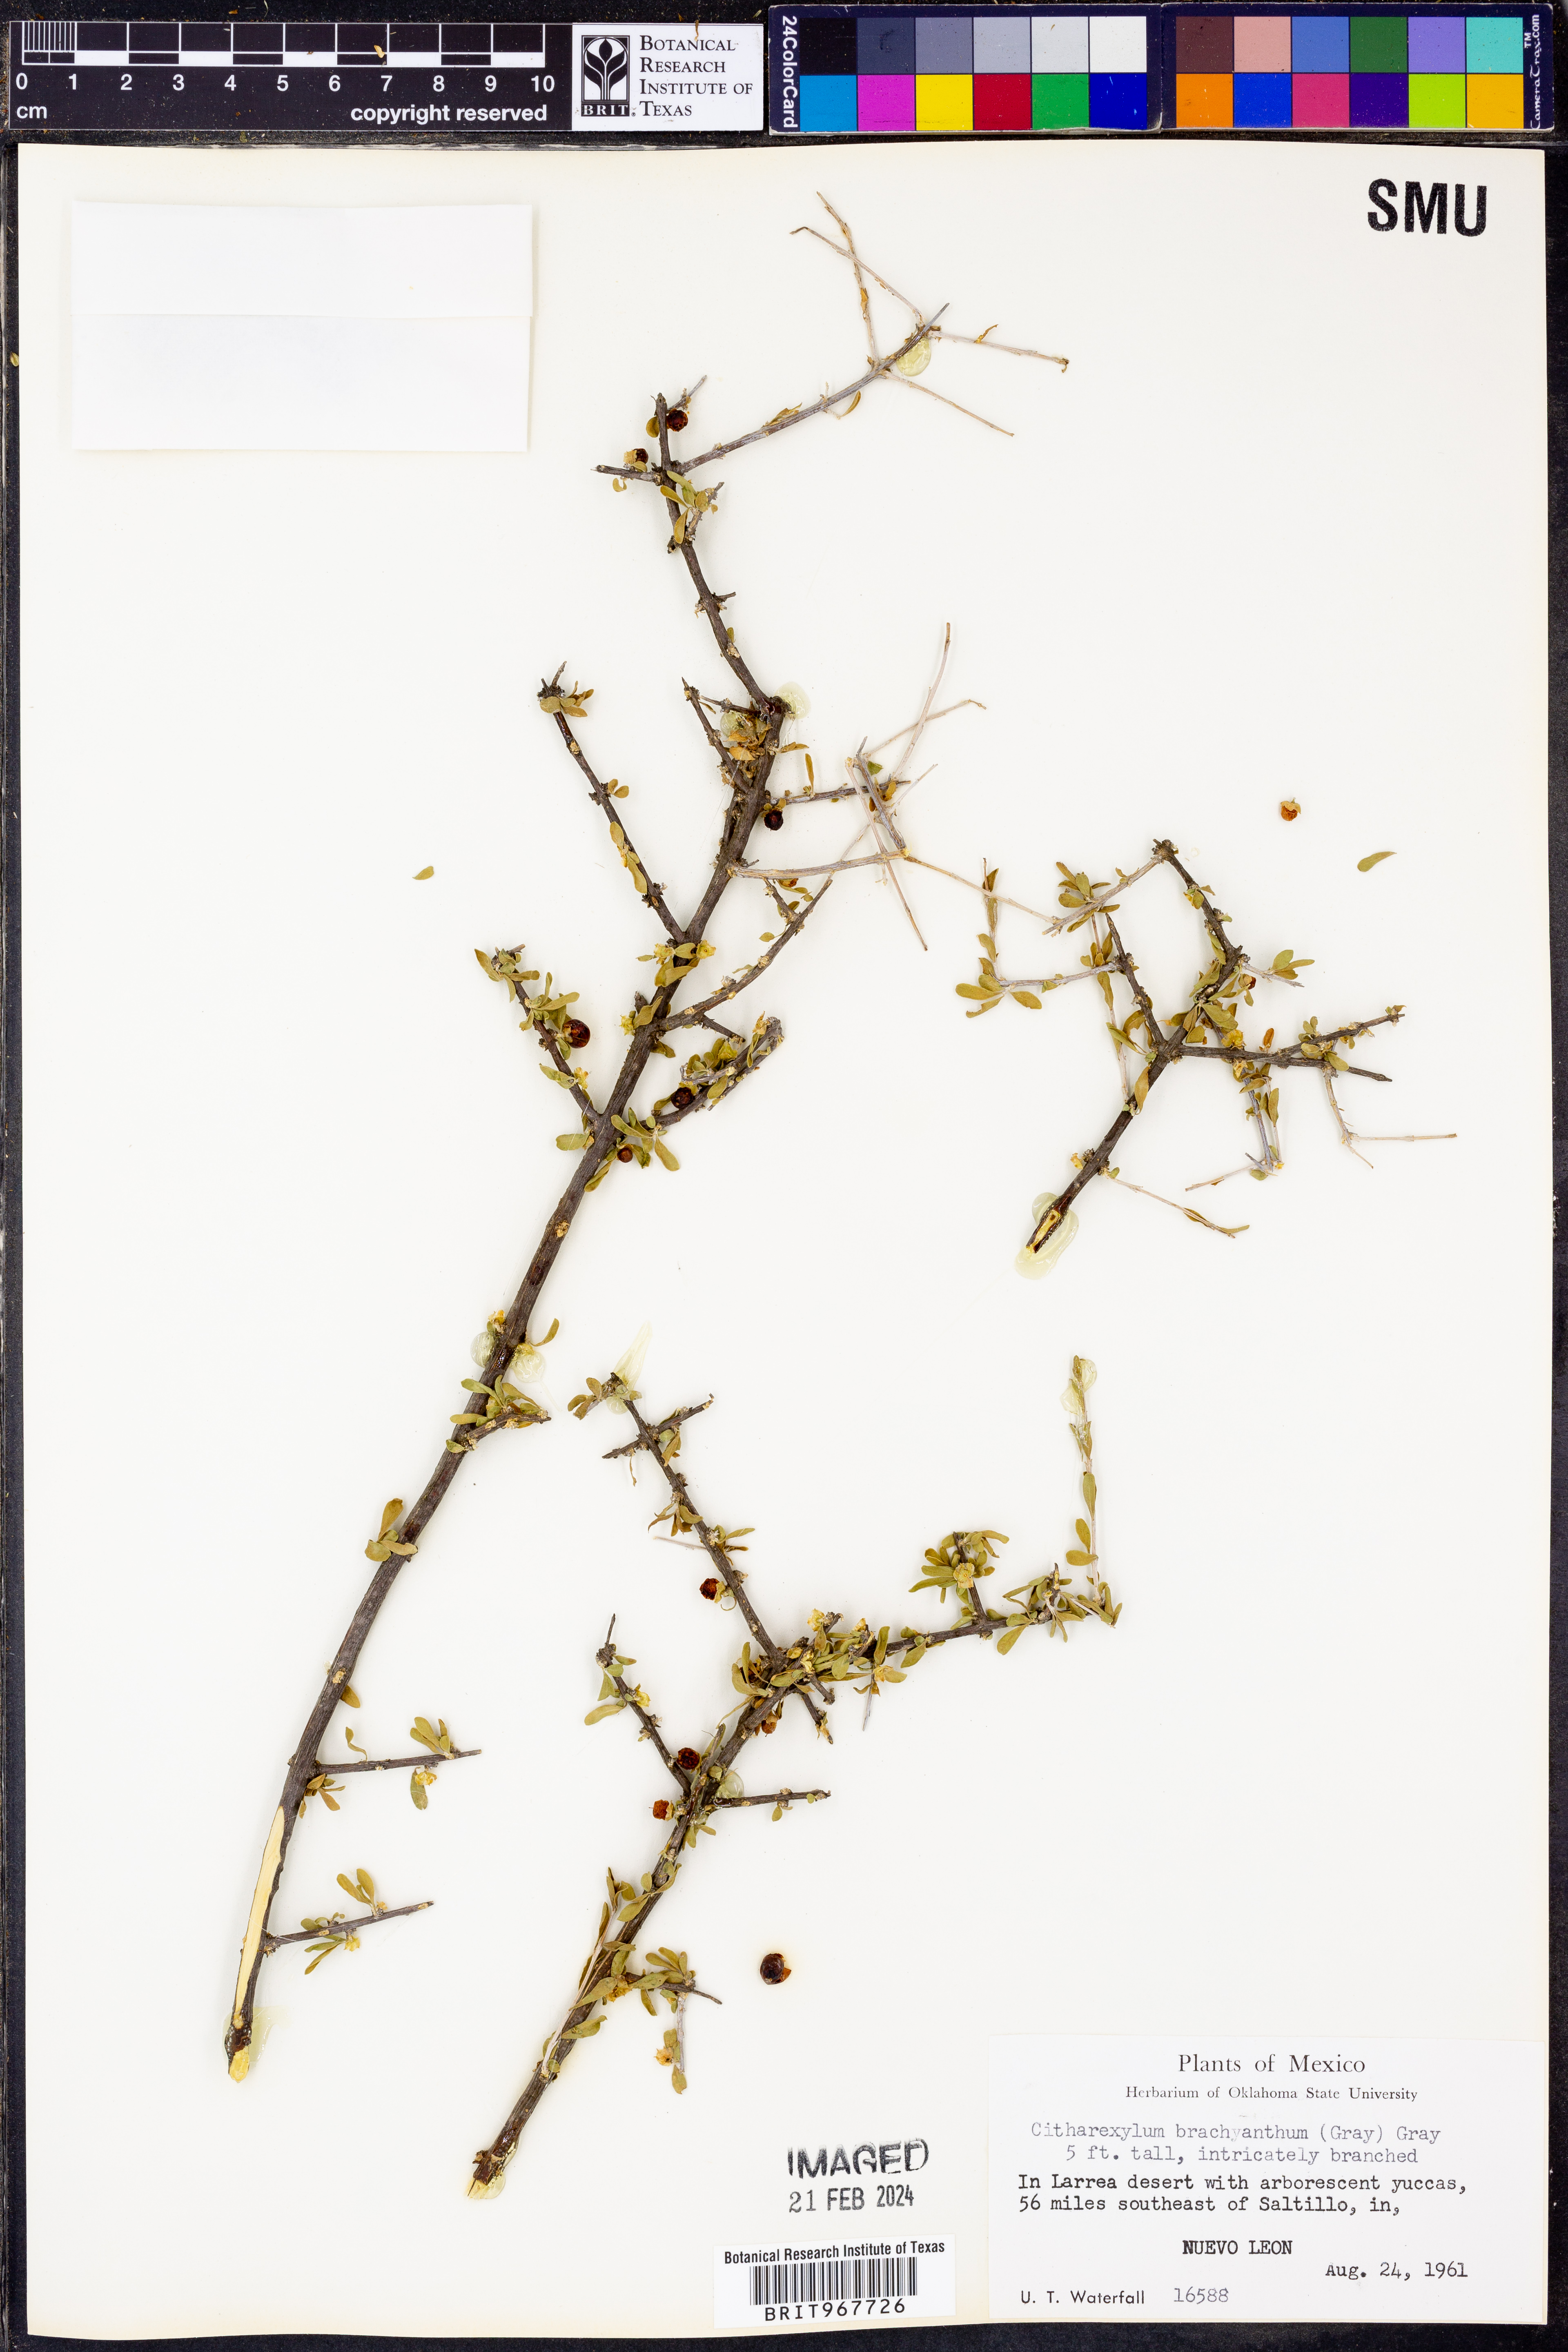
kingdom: Plantae
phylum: Tracheophyta
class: Magnoliopsida
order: Lamiales
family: Verbenaceae
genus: Citharexylum
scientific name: Citharexylum
